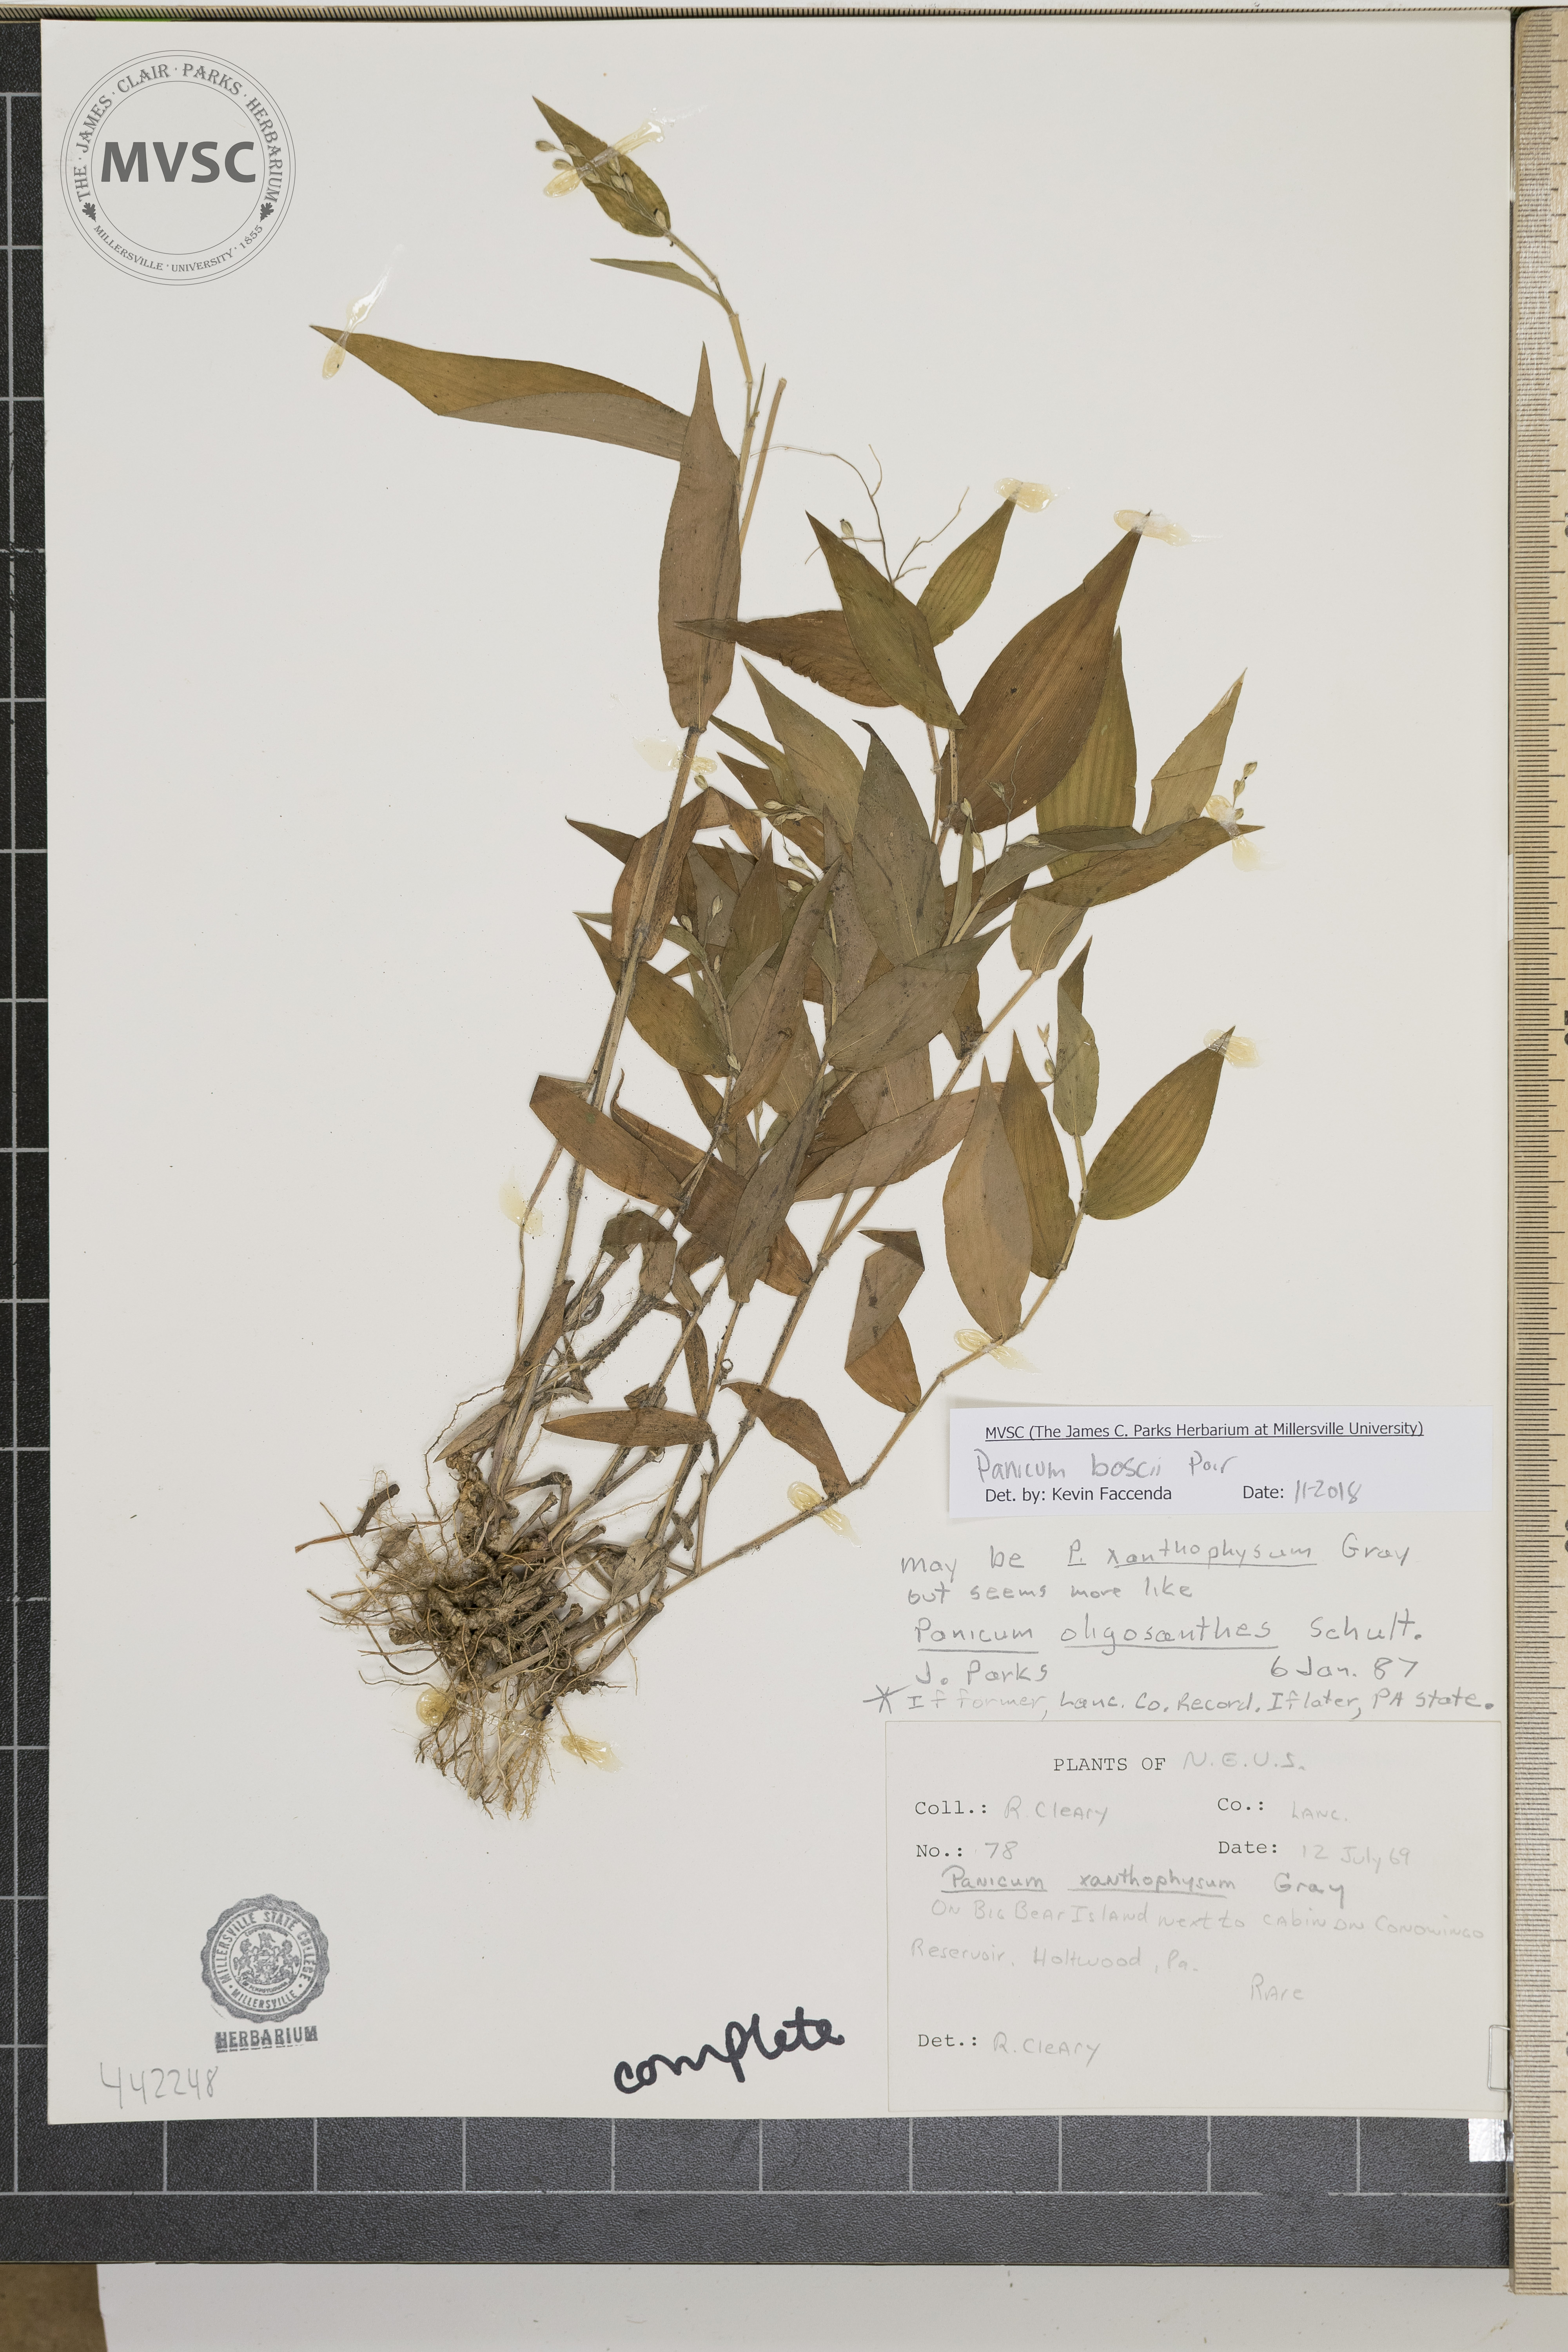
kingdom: Plantae
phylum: Tracheophyta
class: Liliopsida
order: Poales
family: Poaceae
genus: Dichanthelium
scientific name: Dichanthelium boscii
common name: Bosc's panic grass
